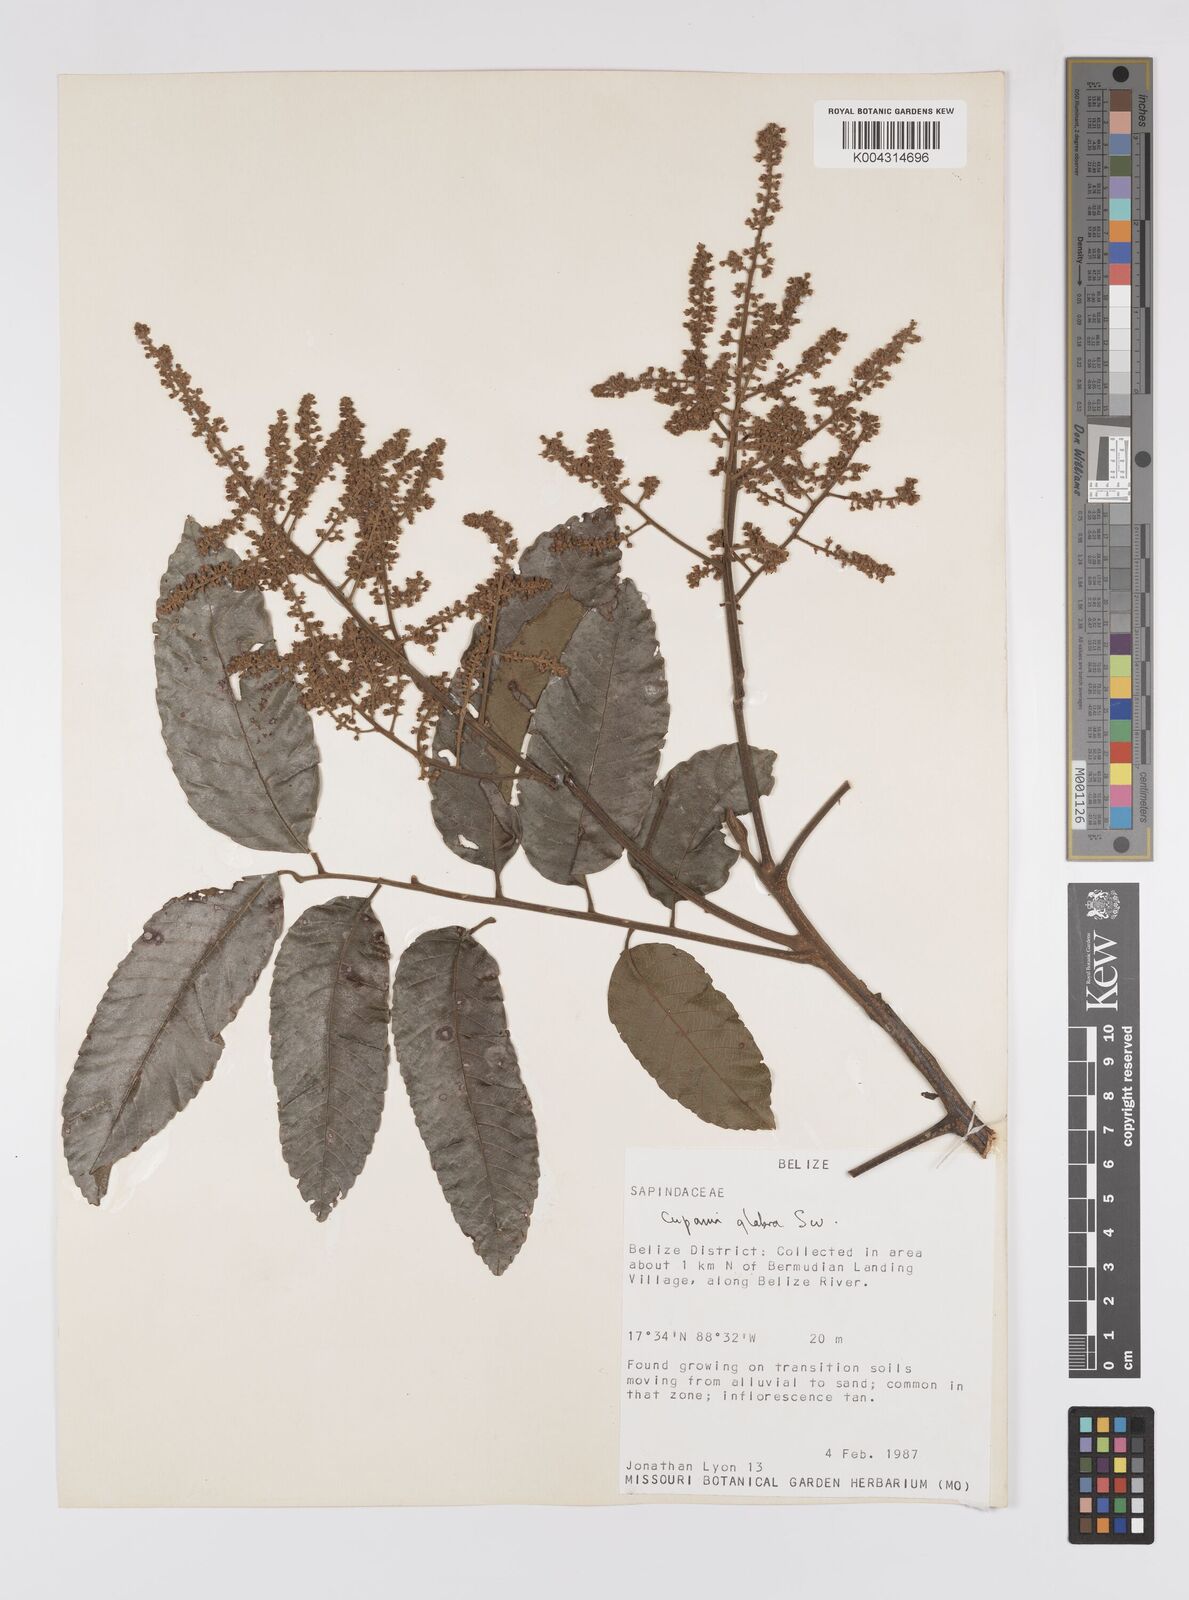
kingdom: Plantae
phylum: Tracheophyta
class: Magnoliopsida
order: Sapindales
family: Sapindaceae
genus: Cupania
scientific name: Cupania
